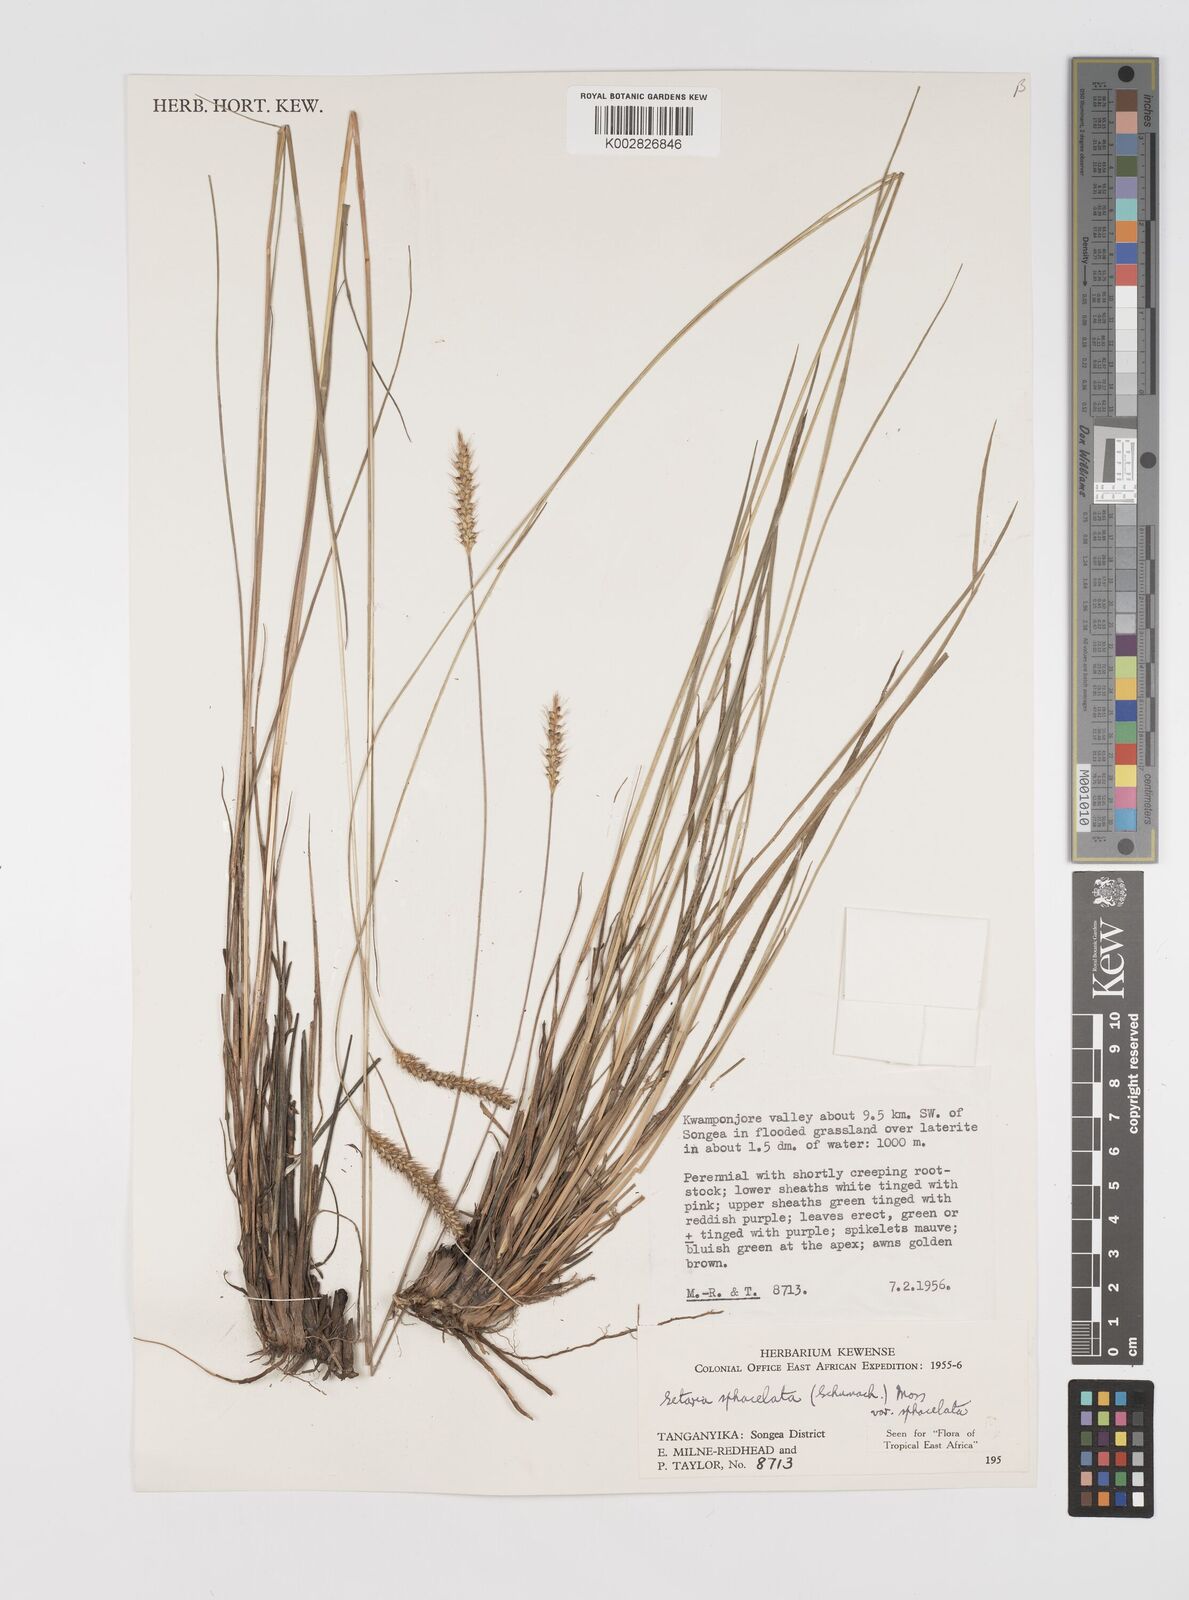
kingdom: Plantae
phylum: Tracheophyta
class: Liliopsida
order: Poales
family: Poaceae
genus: Setaria
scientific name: Setaria sphacelata
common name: African bristlegrass
